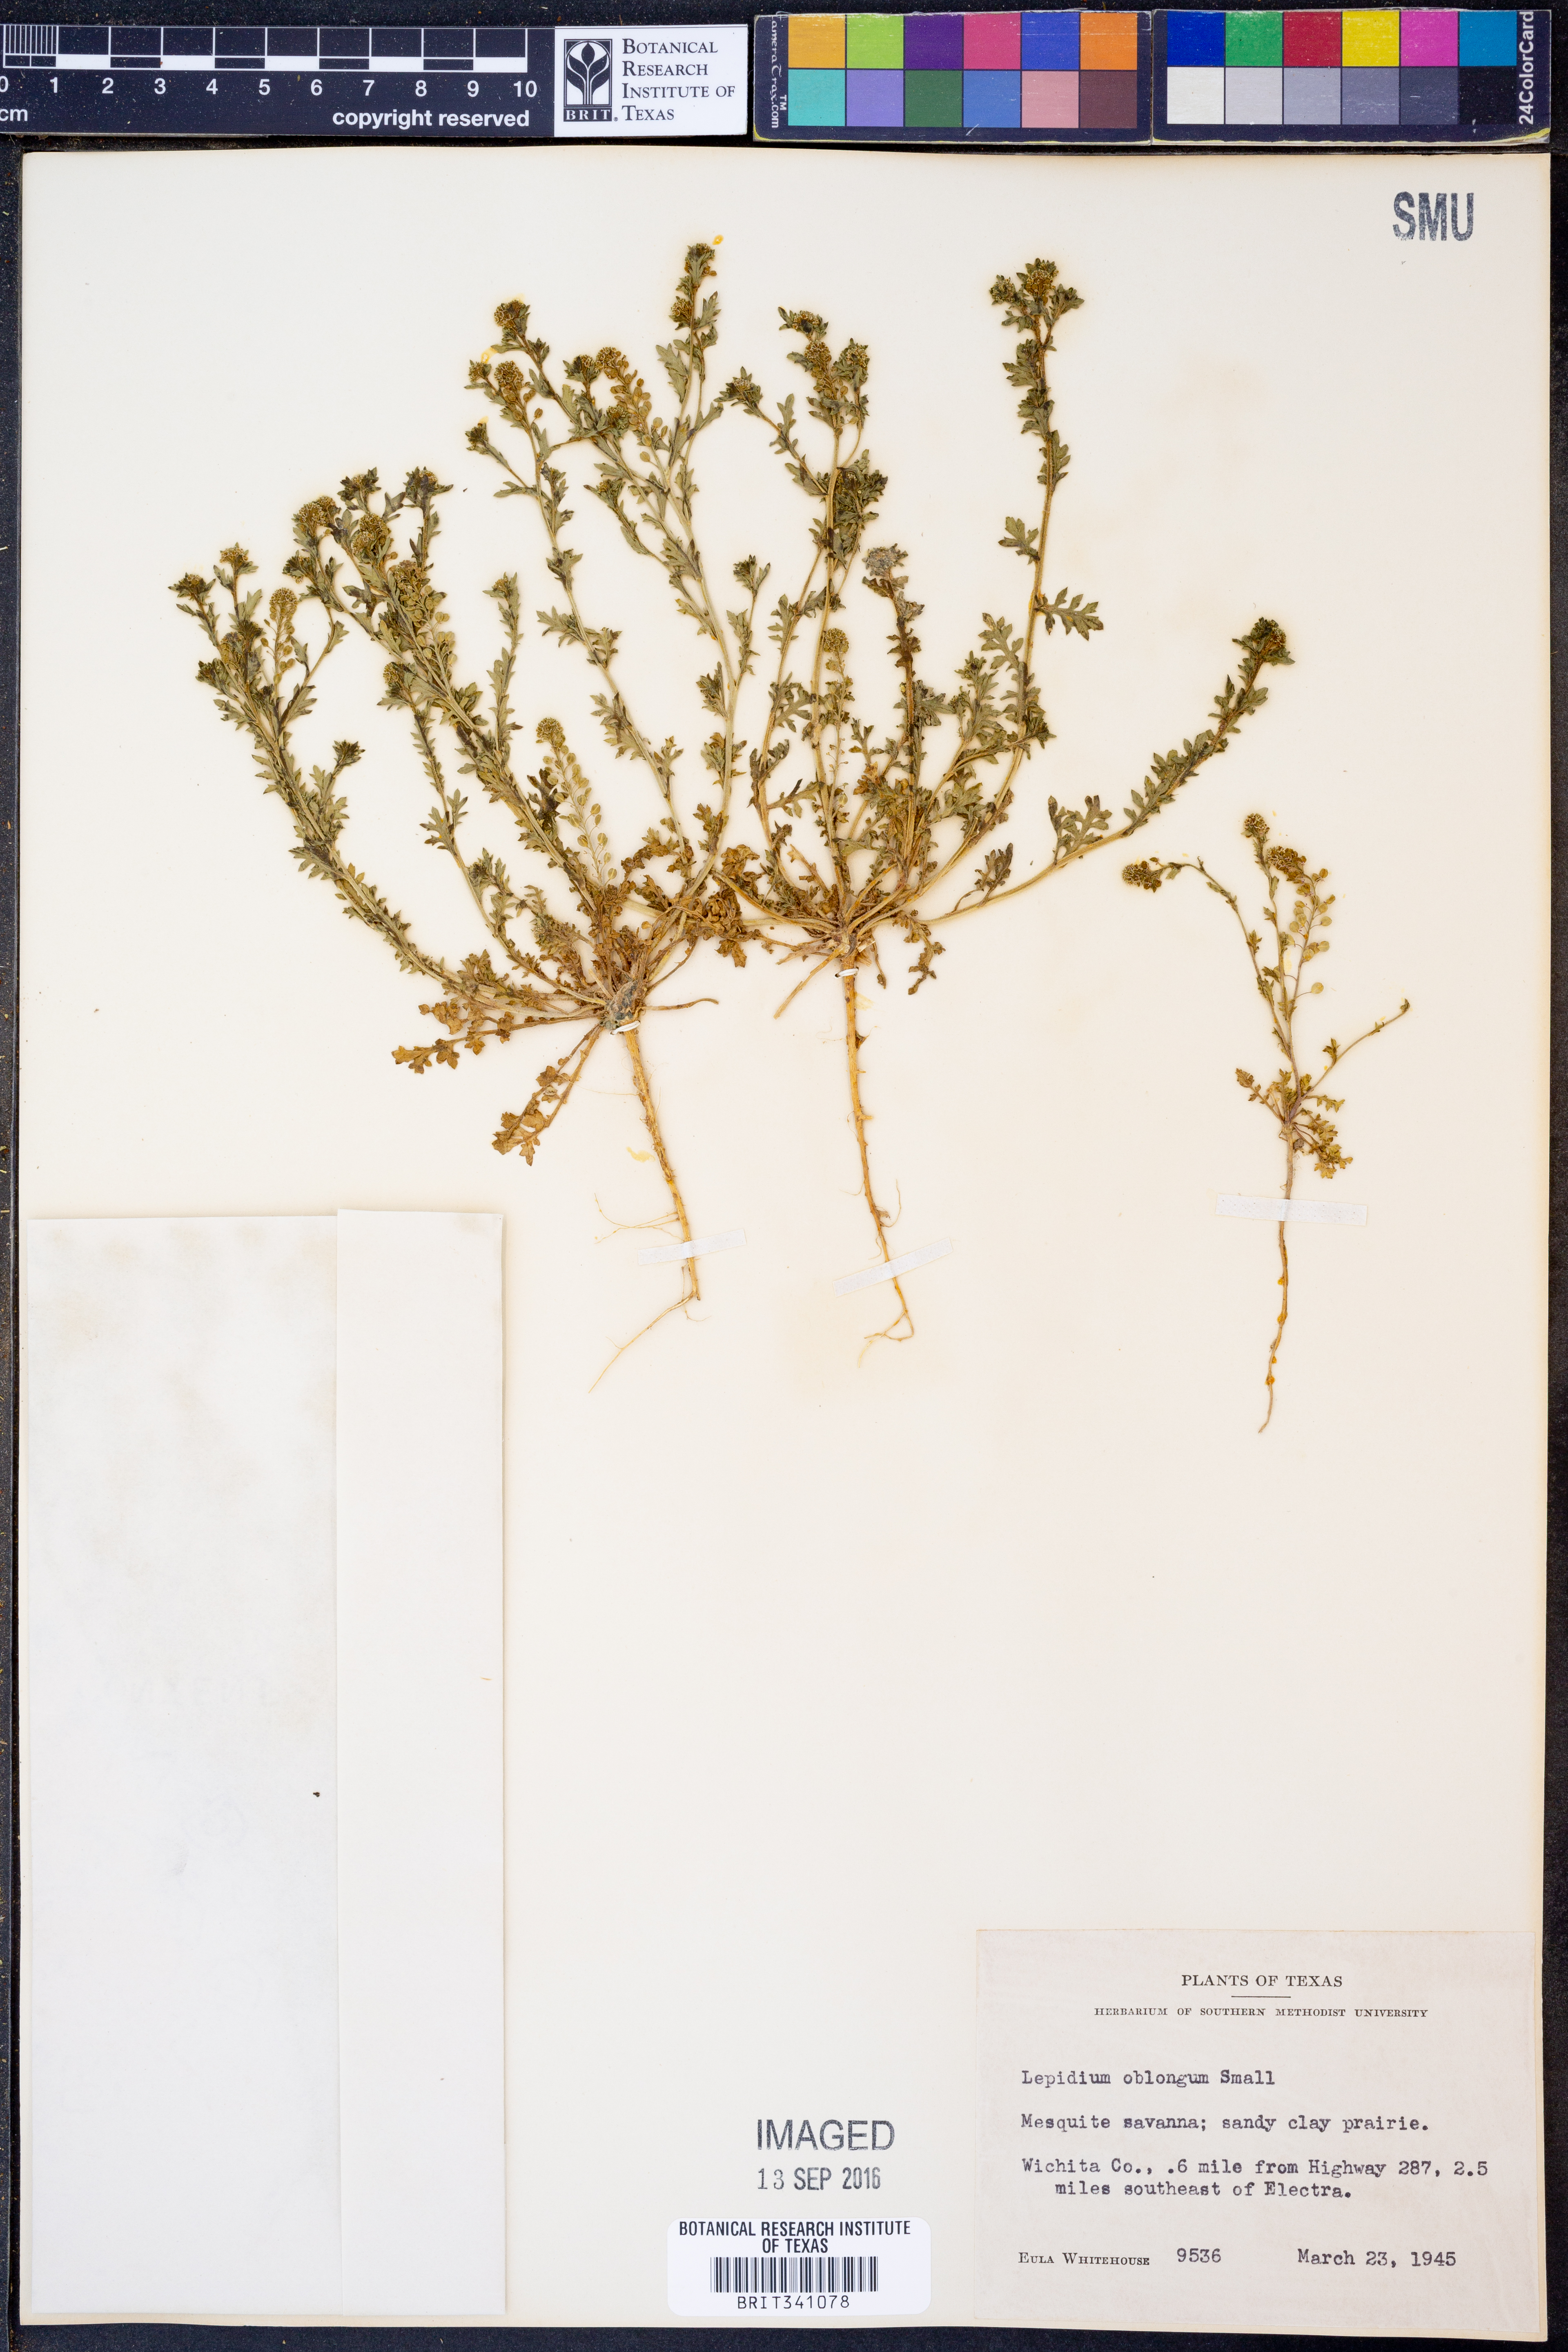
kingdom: Plantae
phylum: Tracheophyta
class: Magnoliopsida
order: Brassicales
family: Brassicaceae
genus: Lepidium
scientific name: Lepidium oblongum
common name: Veiny pepperweed
